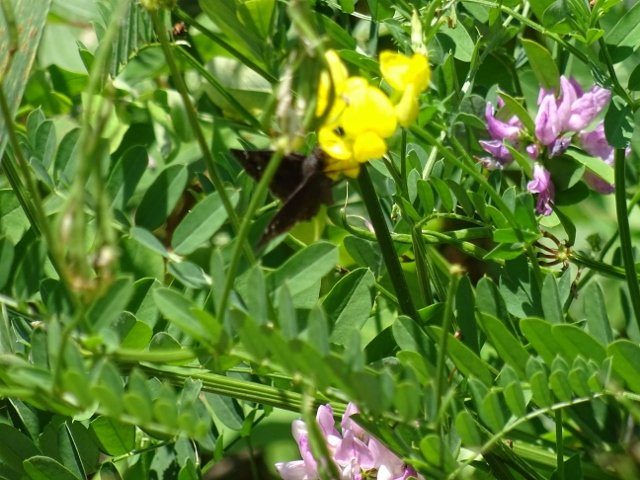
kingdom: Animalia
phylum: Arthropoda
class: Insecta
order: Lepidoptera
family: Hesperiidae
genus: Gesta
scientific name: Gesta
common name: Columbine Duskywing
